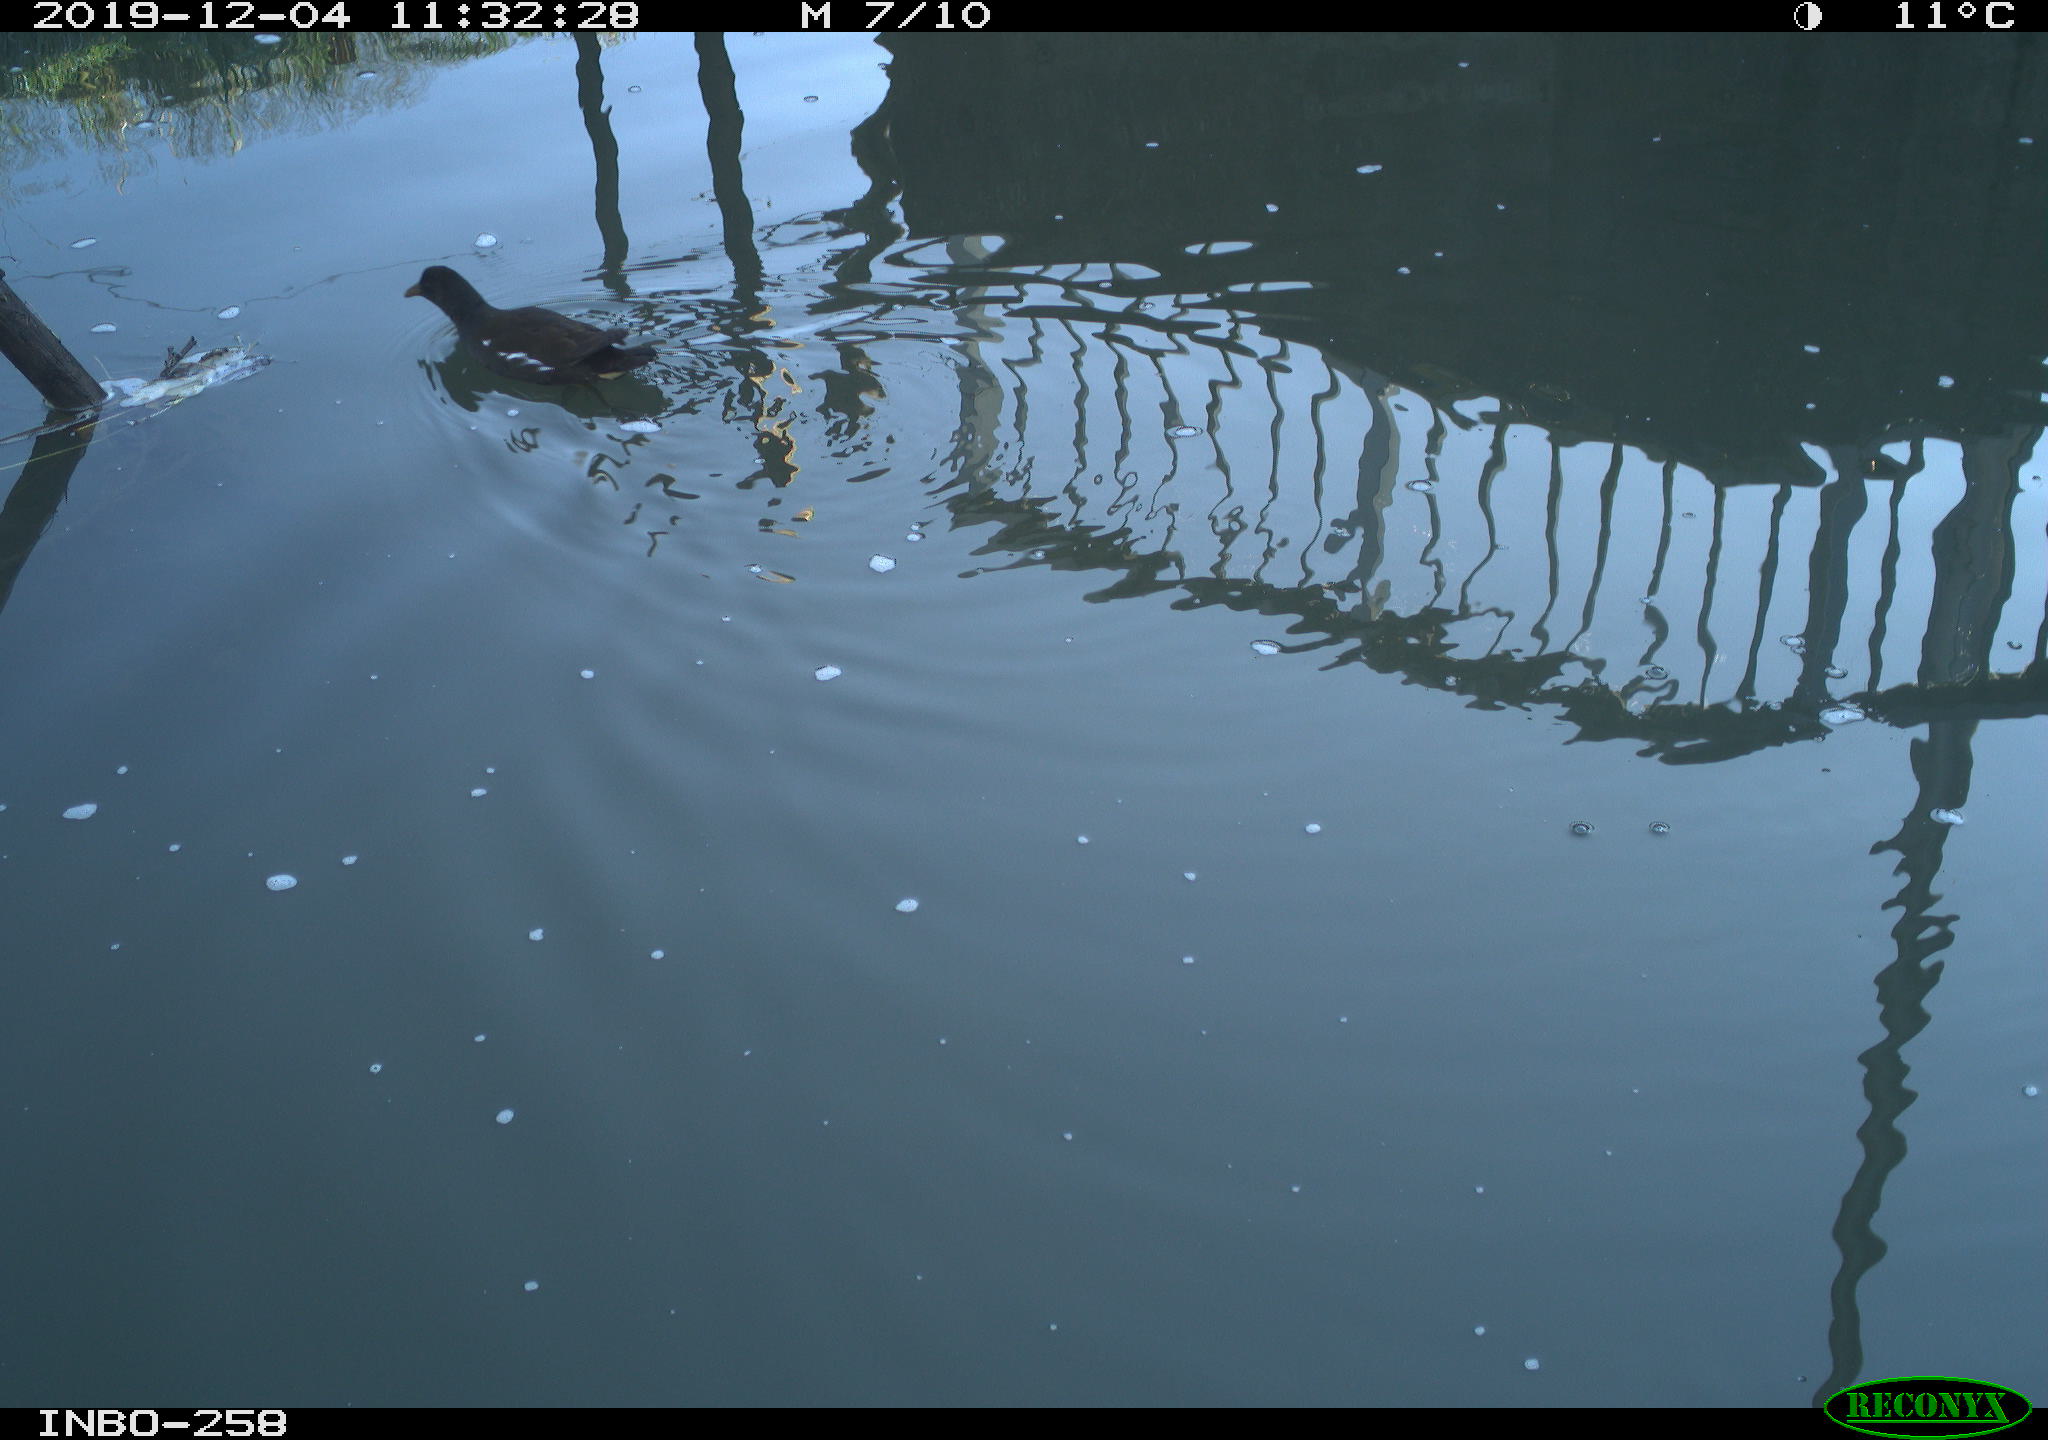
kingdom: Animalia
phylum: Chordata
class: Aves
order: Gruiformes
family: Rallidae
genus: Gallinula
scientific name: Gallinula chloropus
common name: Common moorhen
